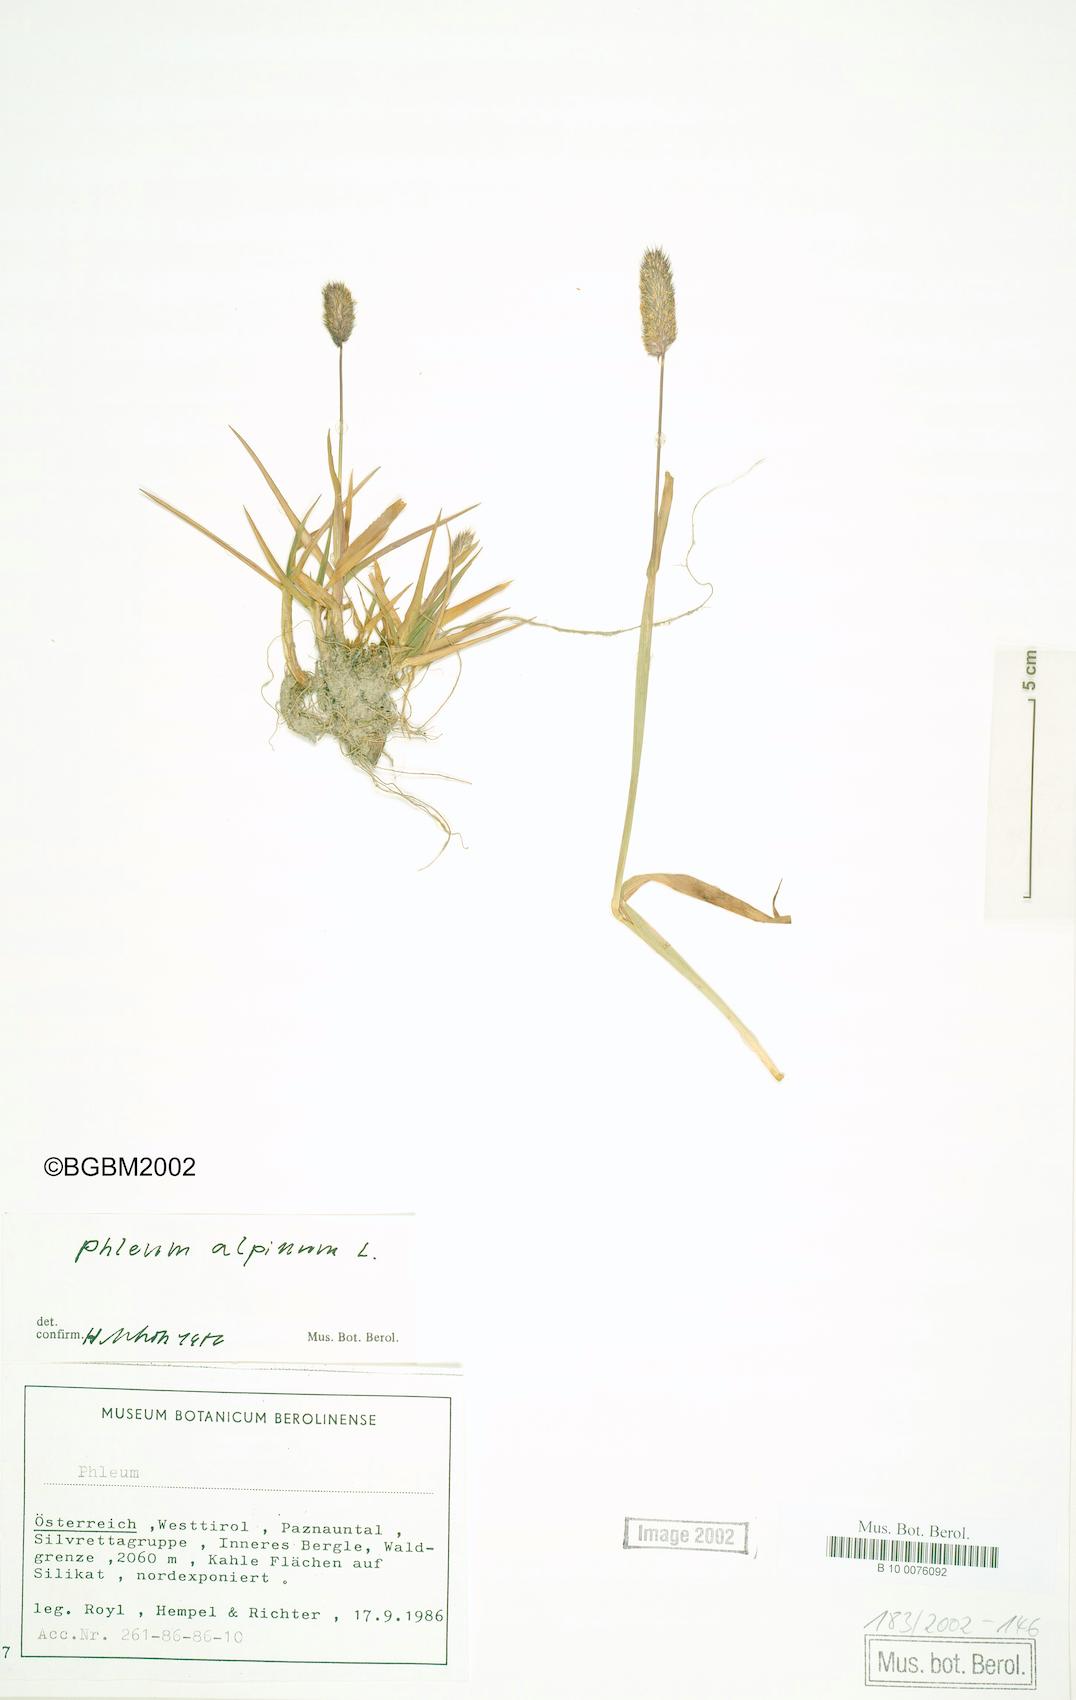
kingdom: Plantae
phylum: Tracheophyta
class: Liliopsida
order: Poales
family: Poaceae
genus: Phleum
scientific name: Phleum alpinum
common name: Alpine cat's-tail
